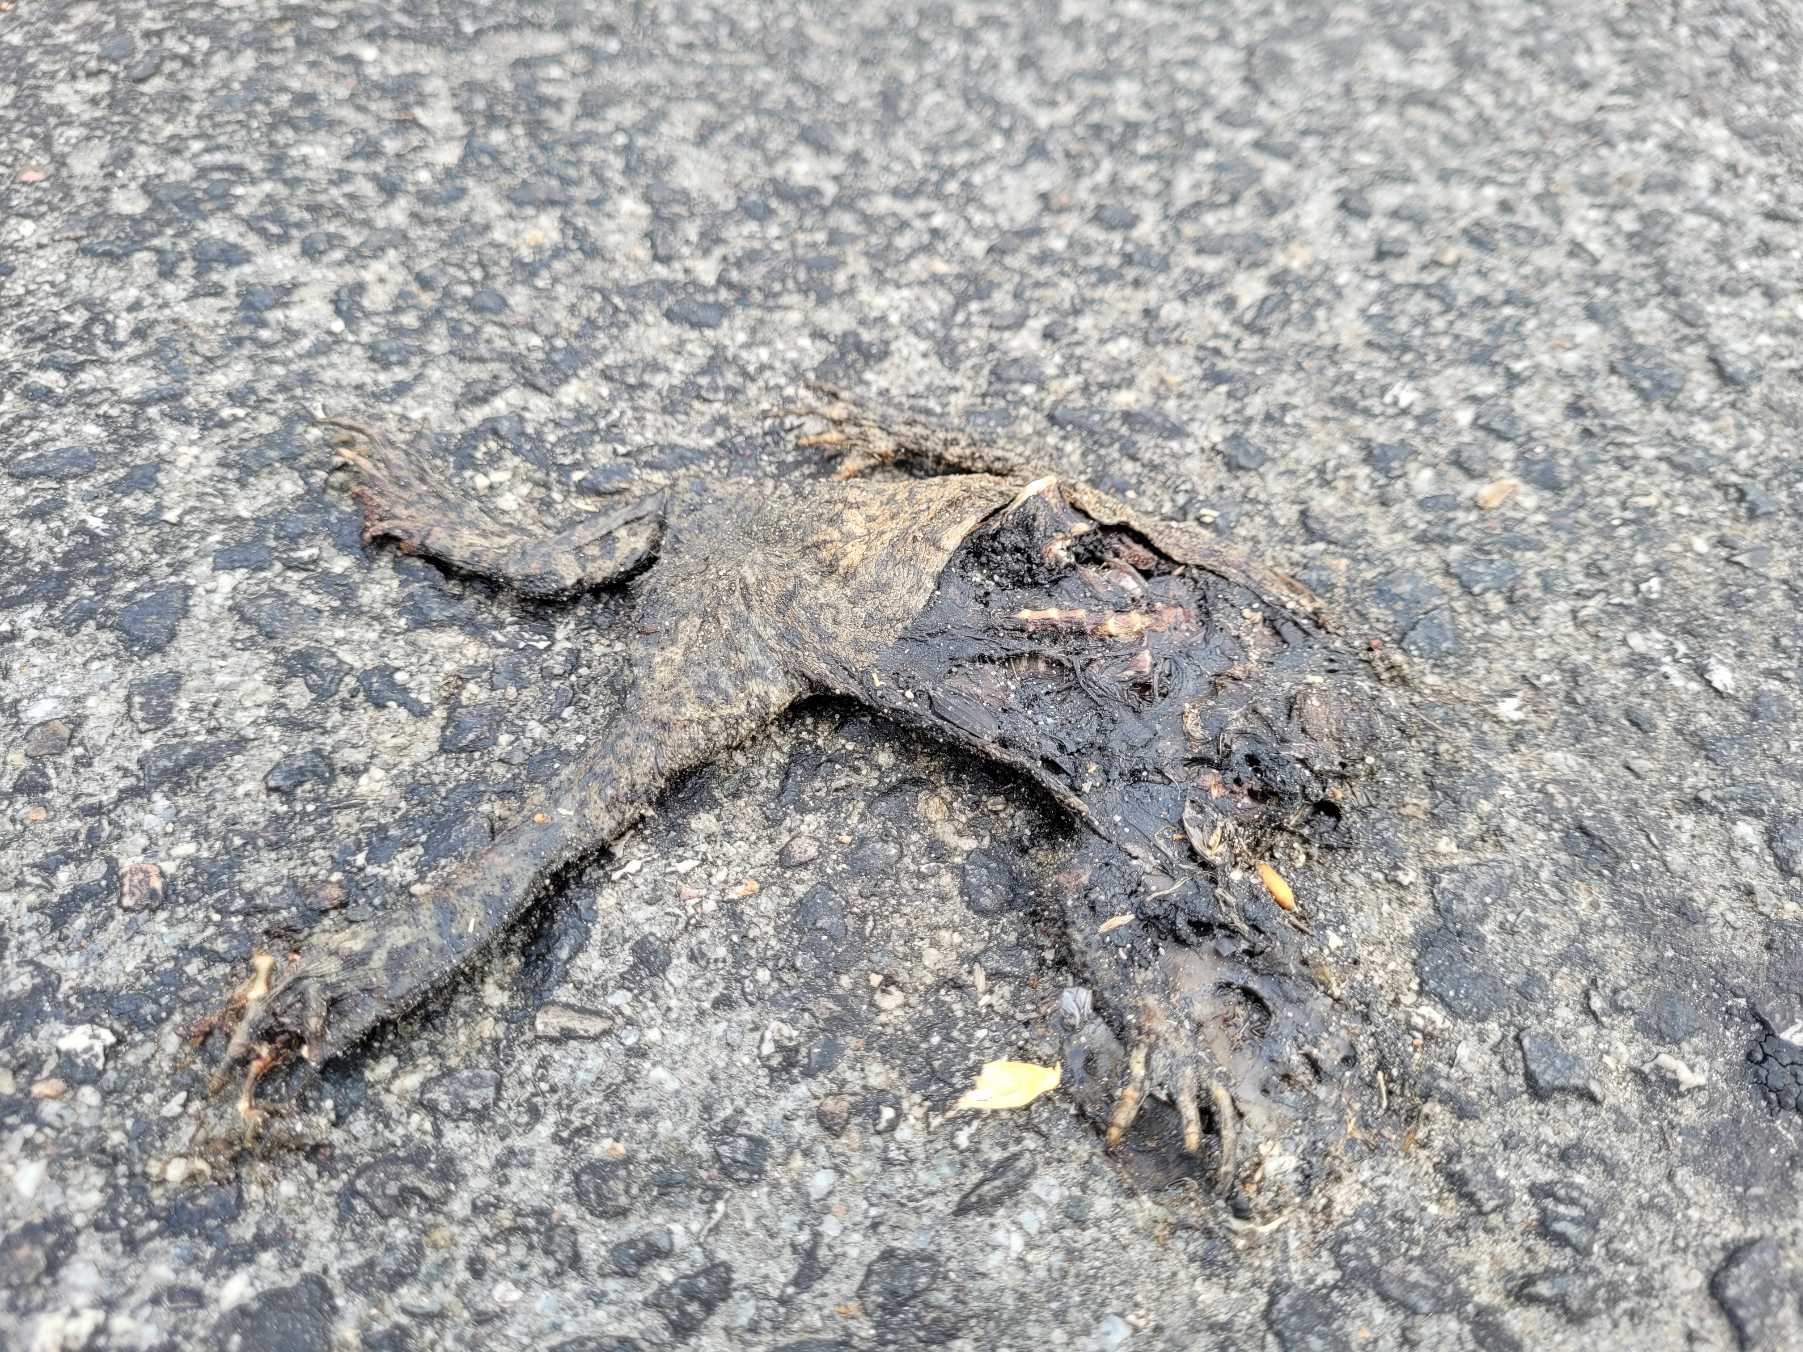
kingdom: Animalia
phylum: Chordata
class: Amphibia
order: Anura
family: Bufonidae
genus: Bufo
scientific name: Bufo bufo
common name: Skrubtudse
